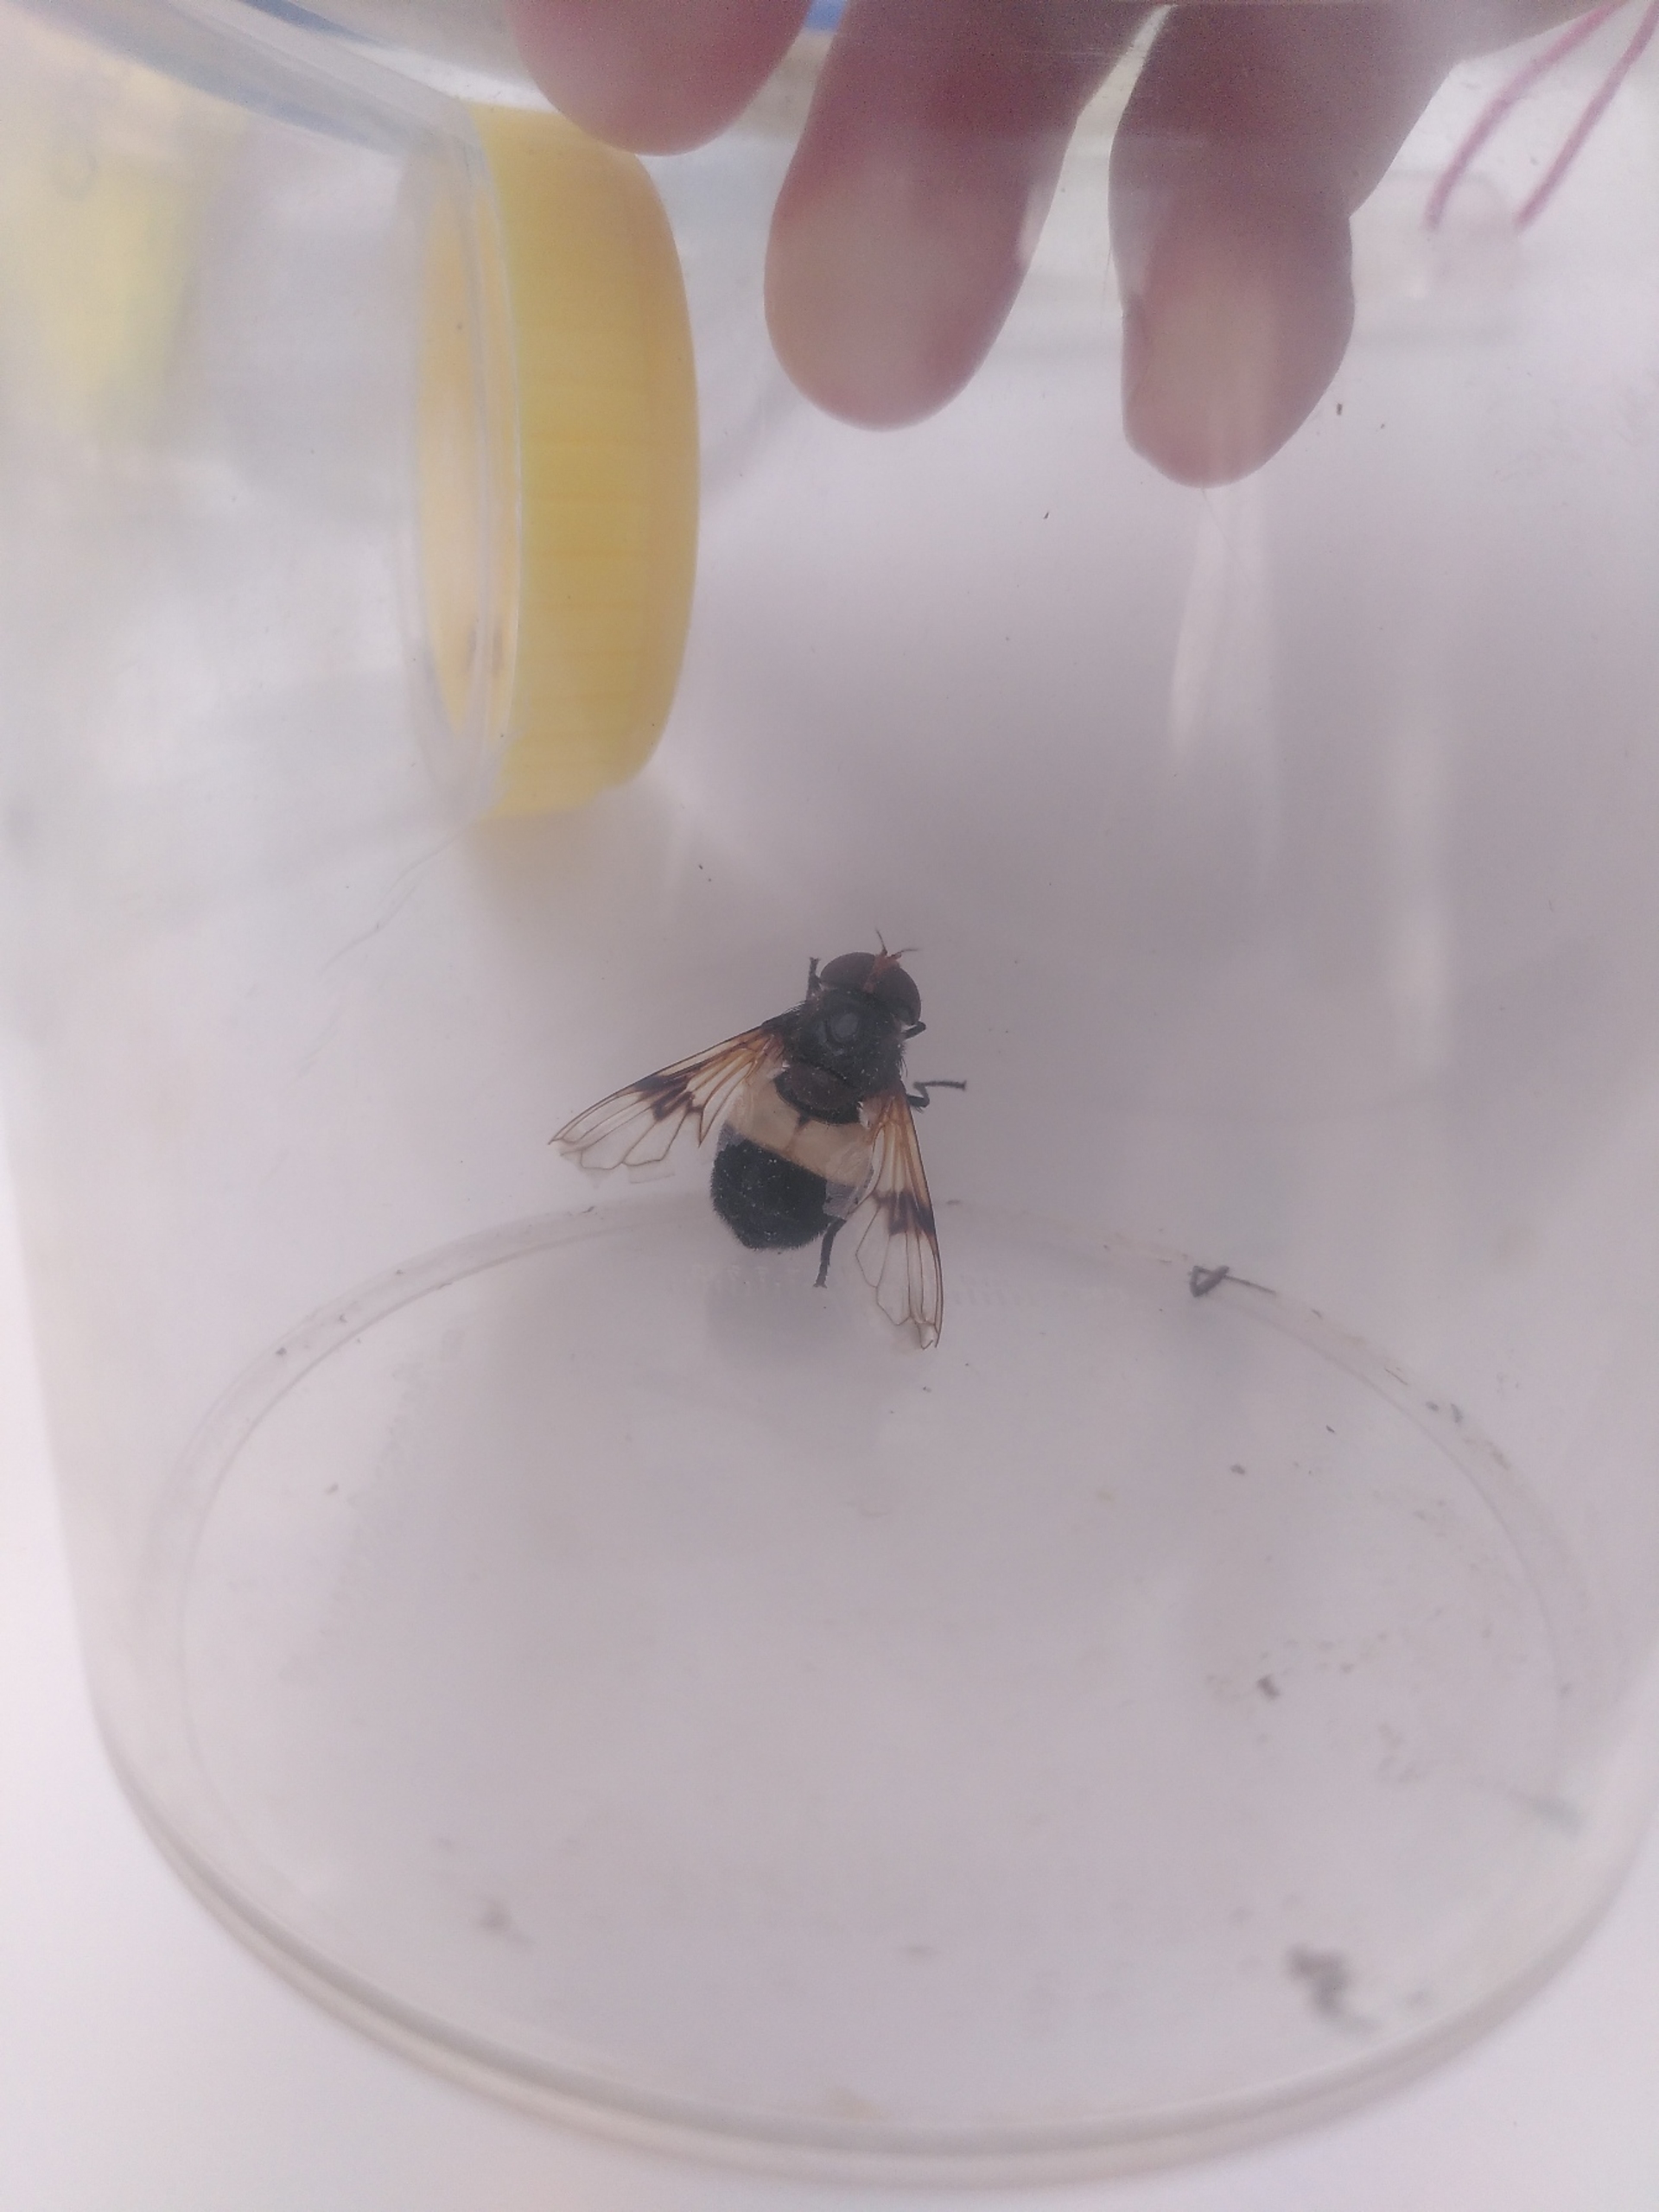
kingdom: Animalia
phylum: Arthropoda
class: Insecta
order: Diptera
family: Syrphidae
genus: Volucella
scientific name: Volucella pellucens
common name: Hvidbåndet humlesvirreflue
